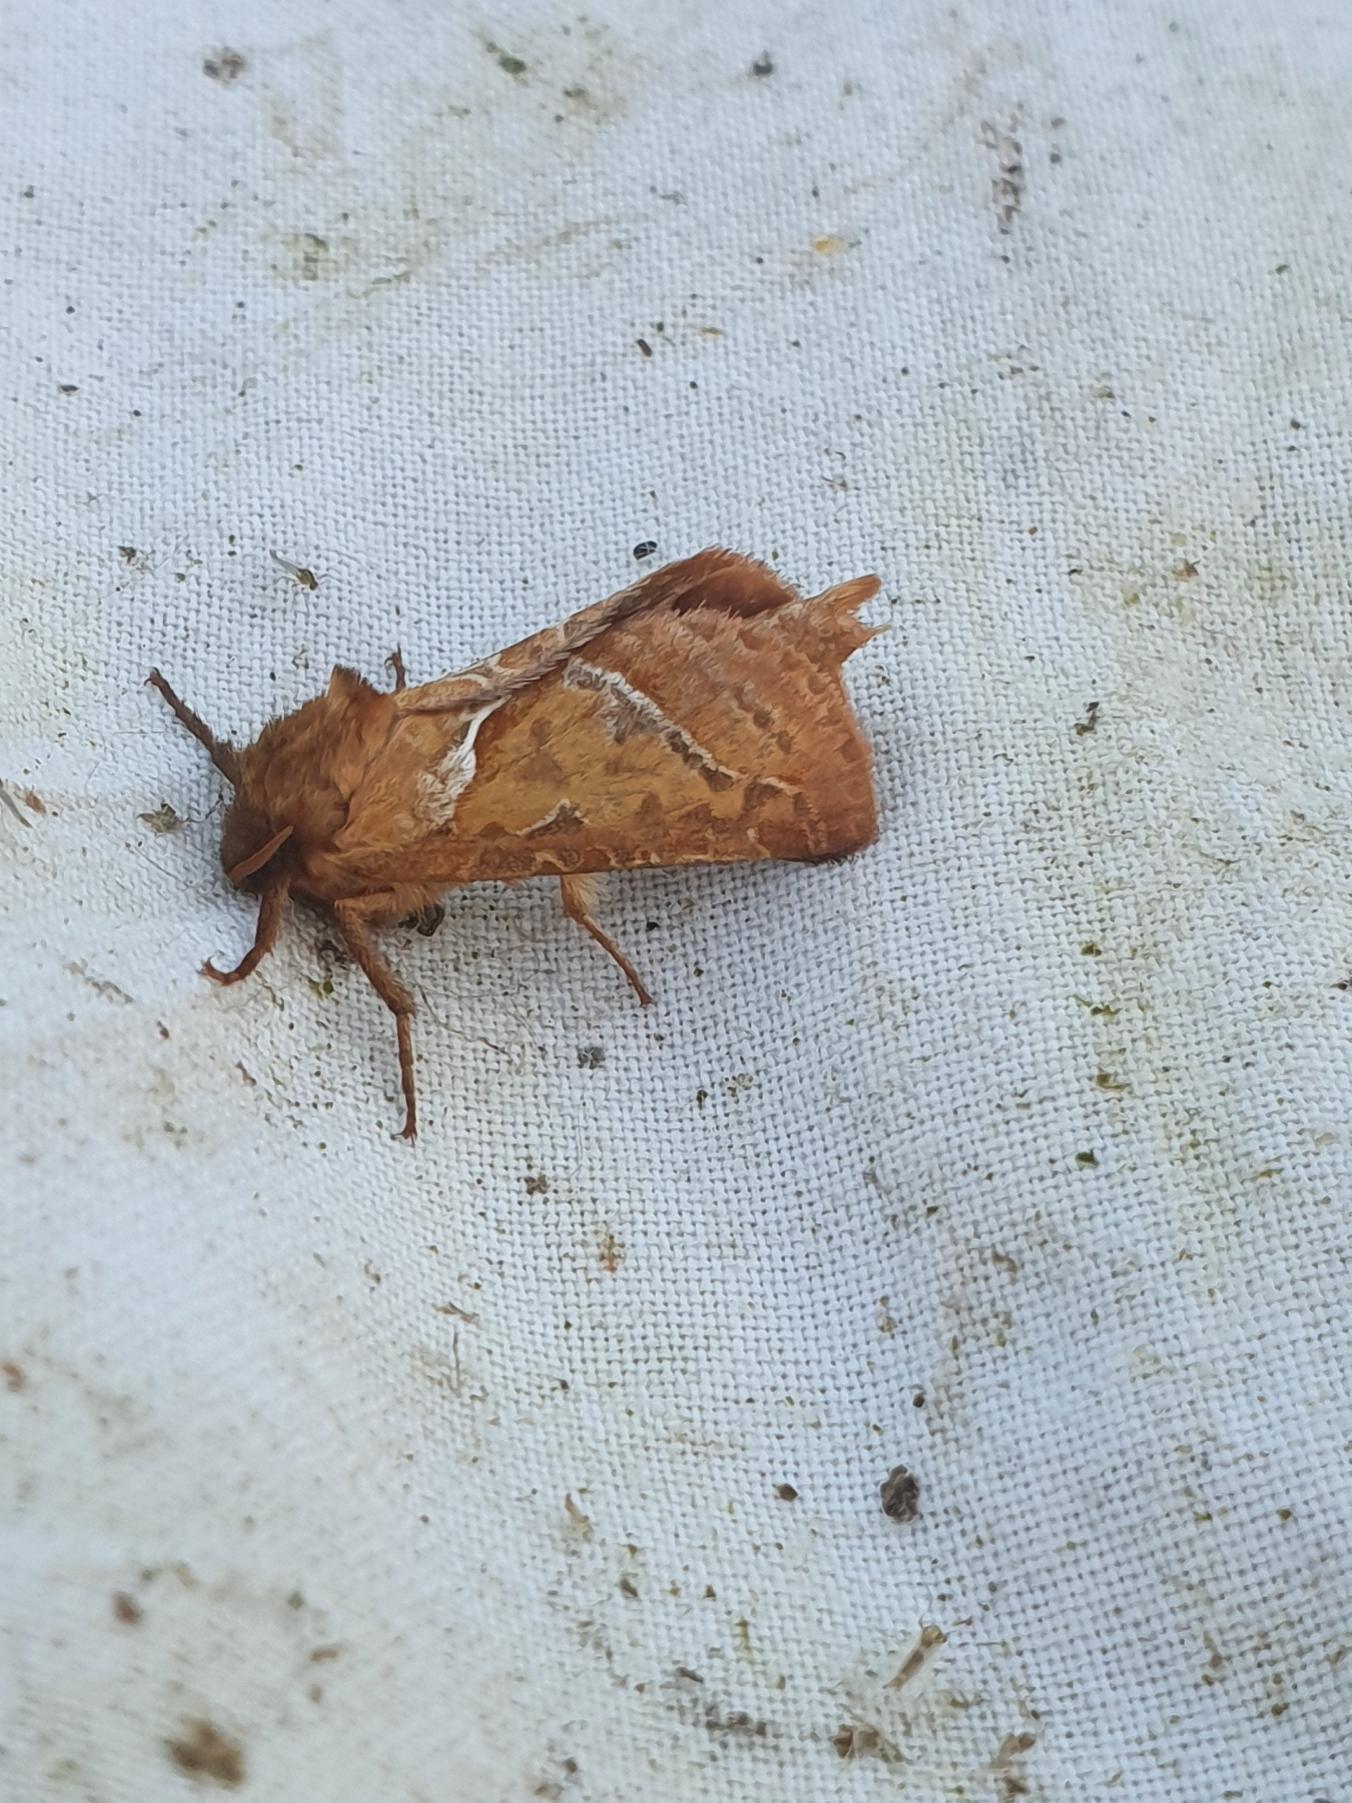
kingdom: Animalia
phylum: Arthropoda
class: Insecta
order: Lepidoptera
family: Hepialidae
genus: Triodia
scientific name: Triodia sylvina
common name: Skræpperodæder
